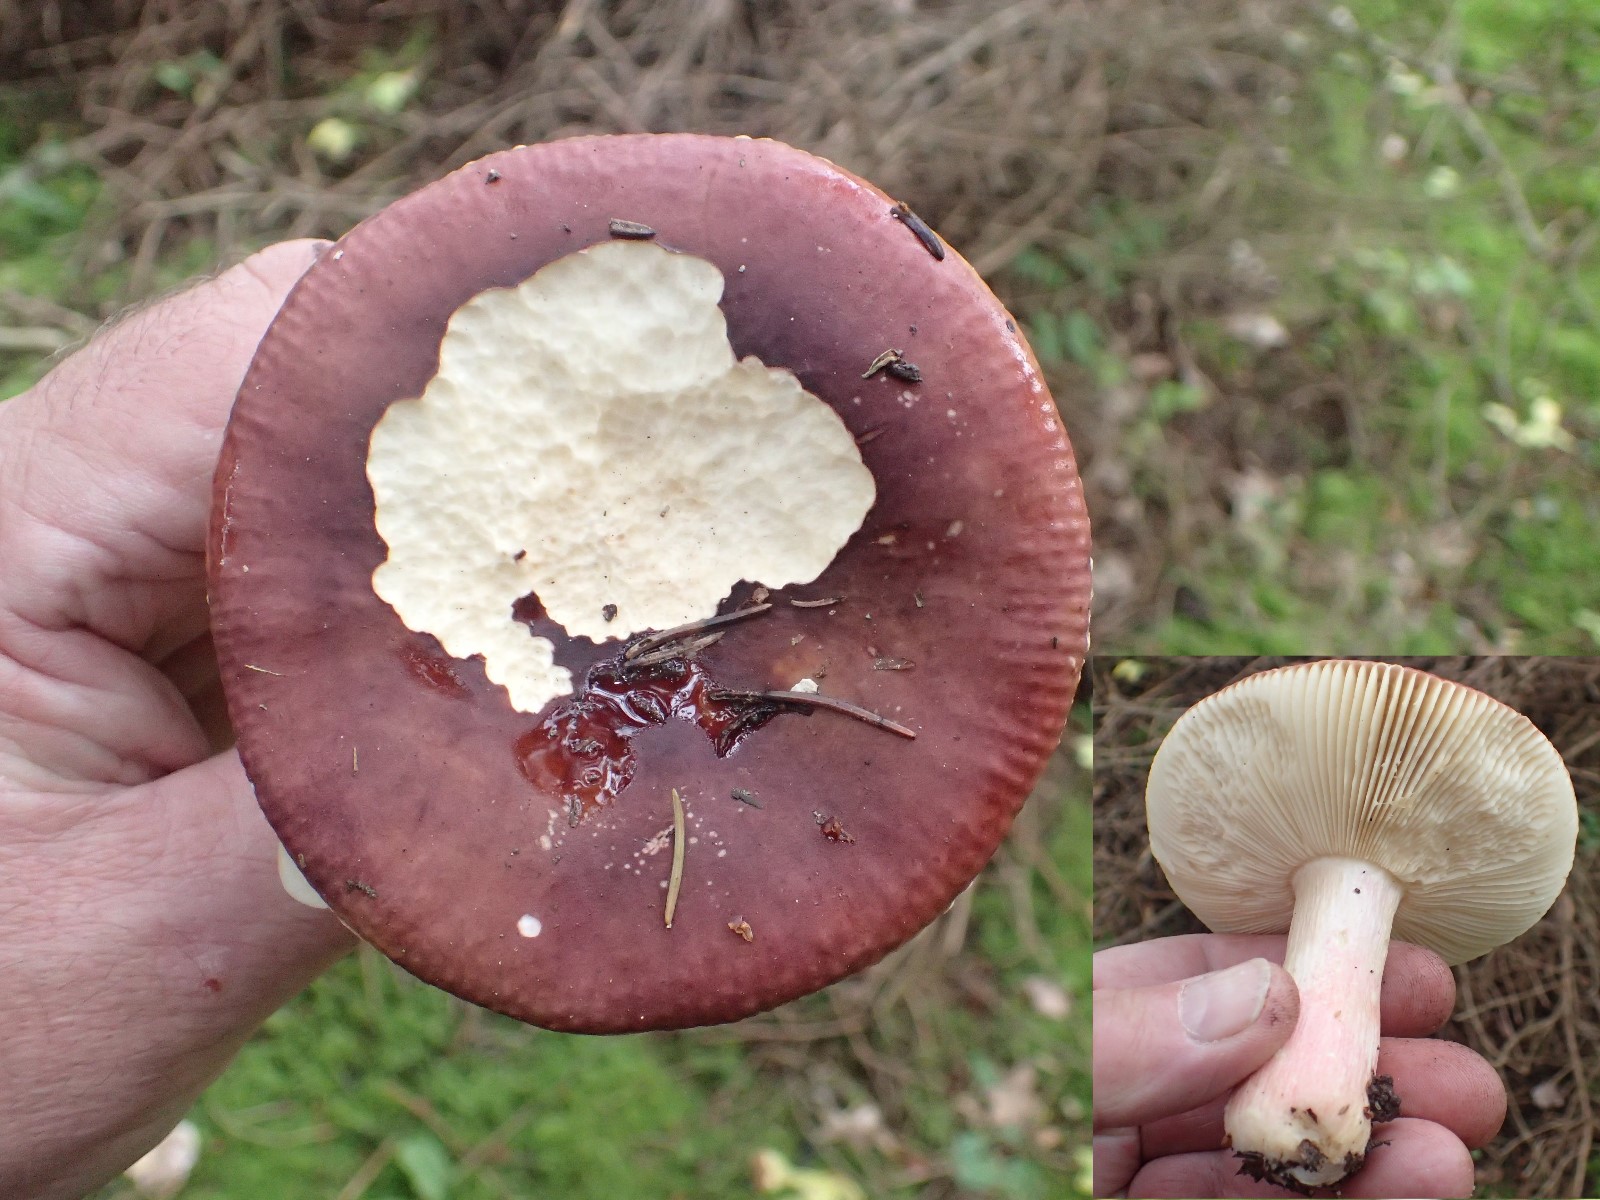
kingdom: Fungi
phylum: Basidiomycota
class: Agaricomycetes
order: Russulales
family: Russulaceae
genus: Russula
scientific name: Russula xerampelina
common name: hummer-skørhat
